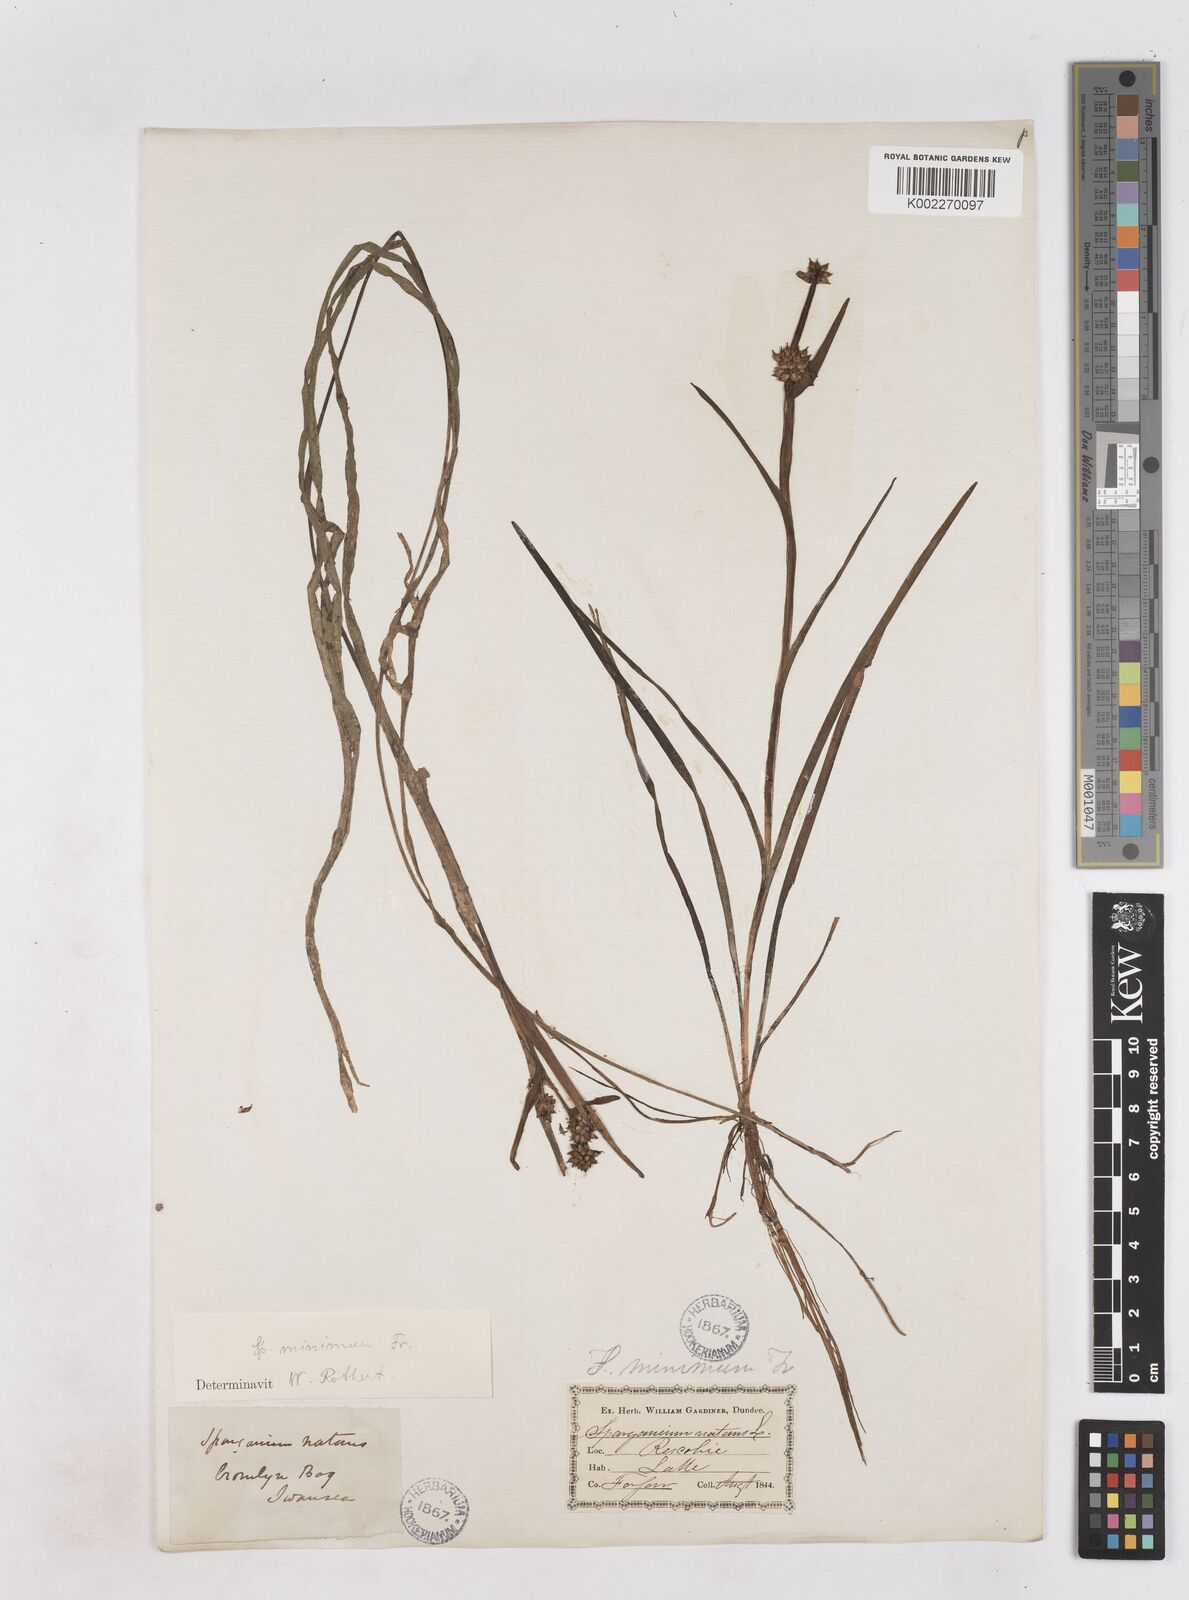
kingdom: Plantae
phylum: Tracheophyta
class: Liliopsida
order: Poales
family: Typhaceae
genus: Sparganium
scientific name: Sparganium natans
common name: Least bur-reed
